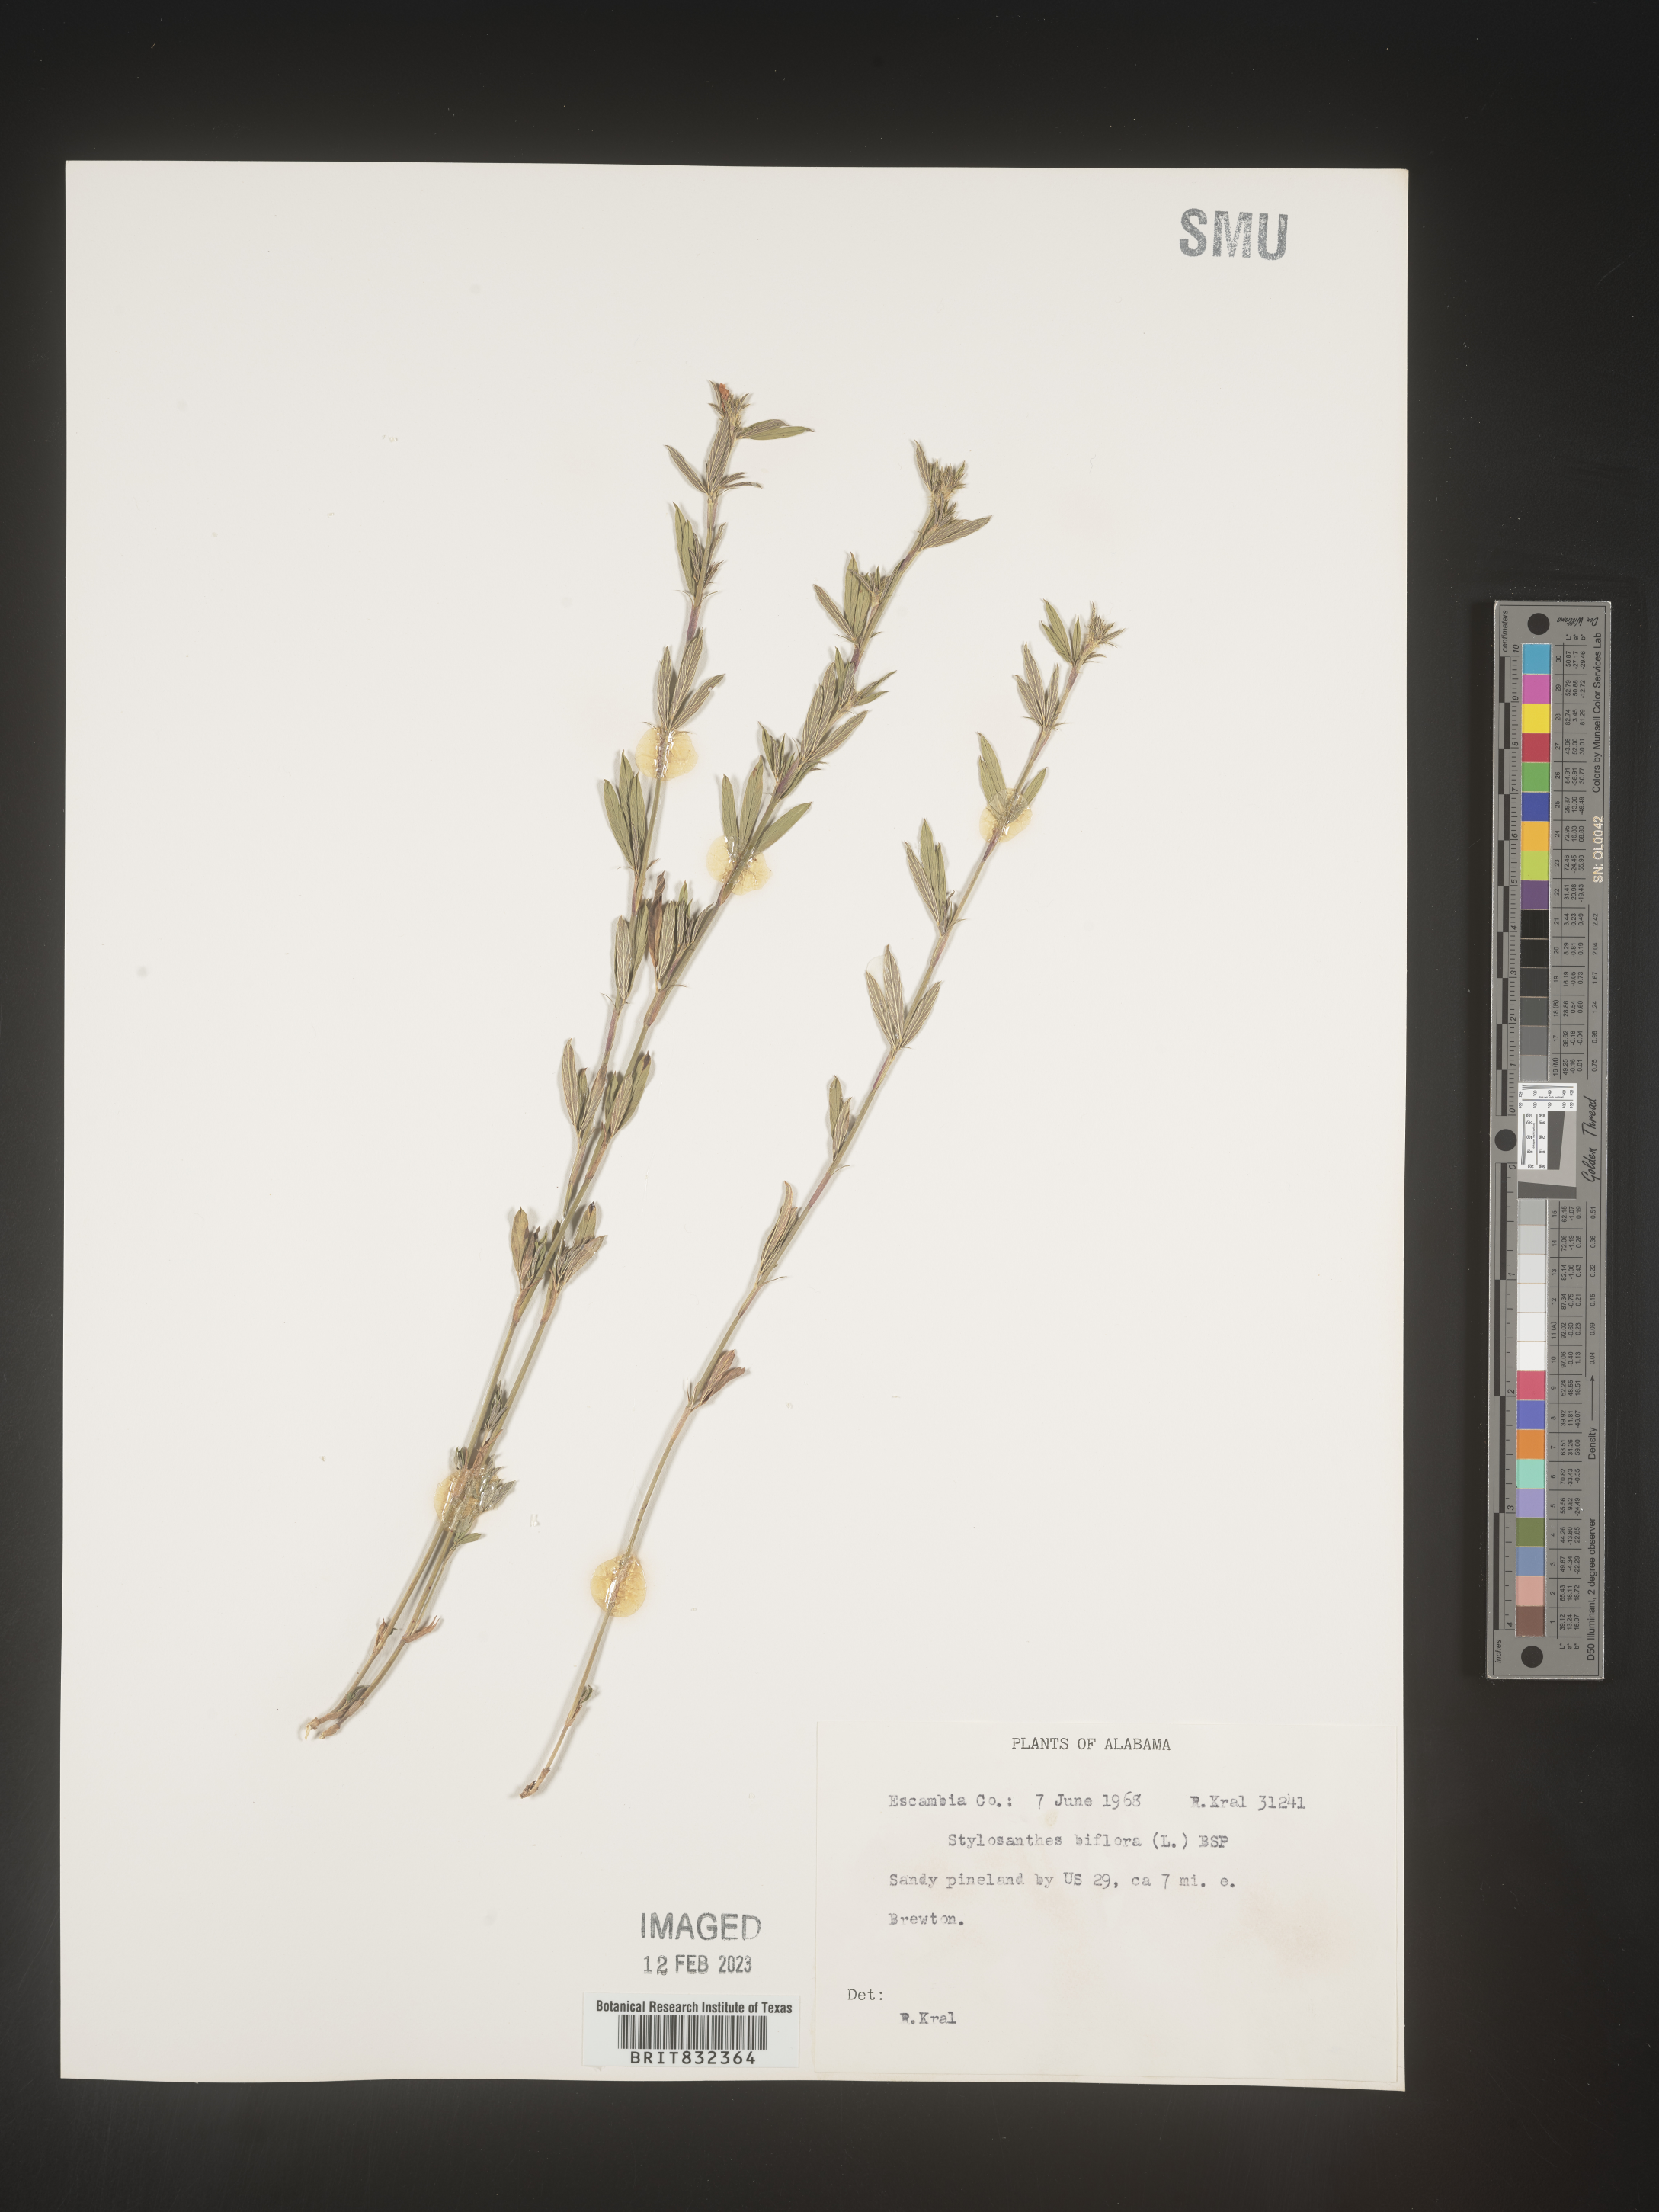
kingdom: Plantae
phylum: Tracheophyta
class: Magnoliopsida
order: Fabales
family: Fabaceae
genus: Stylosanthes
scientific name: Stylosanthes biflora
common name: Two-flower pencil-flower
